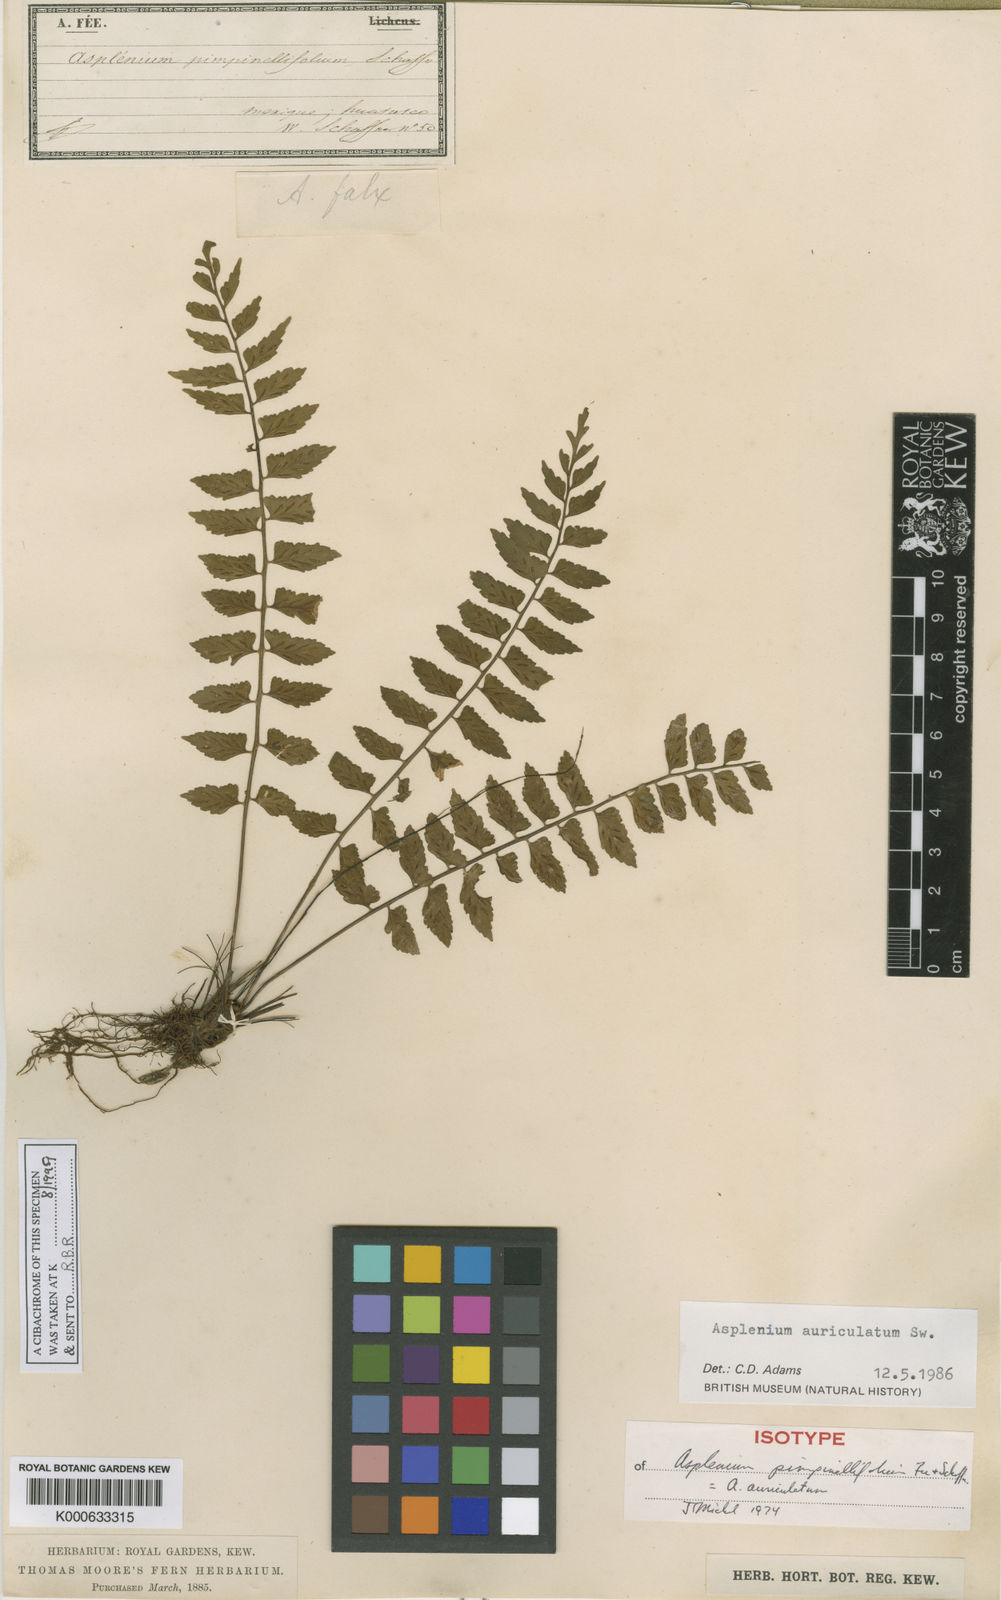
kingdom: Plantae
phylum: Tracheophyta
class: Polypodiopsida
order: Polypodiales
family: Aspleniaceae
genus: Asplenium
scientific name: Asplenium auriculatum
